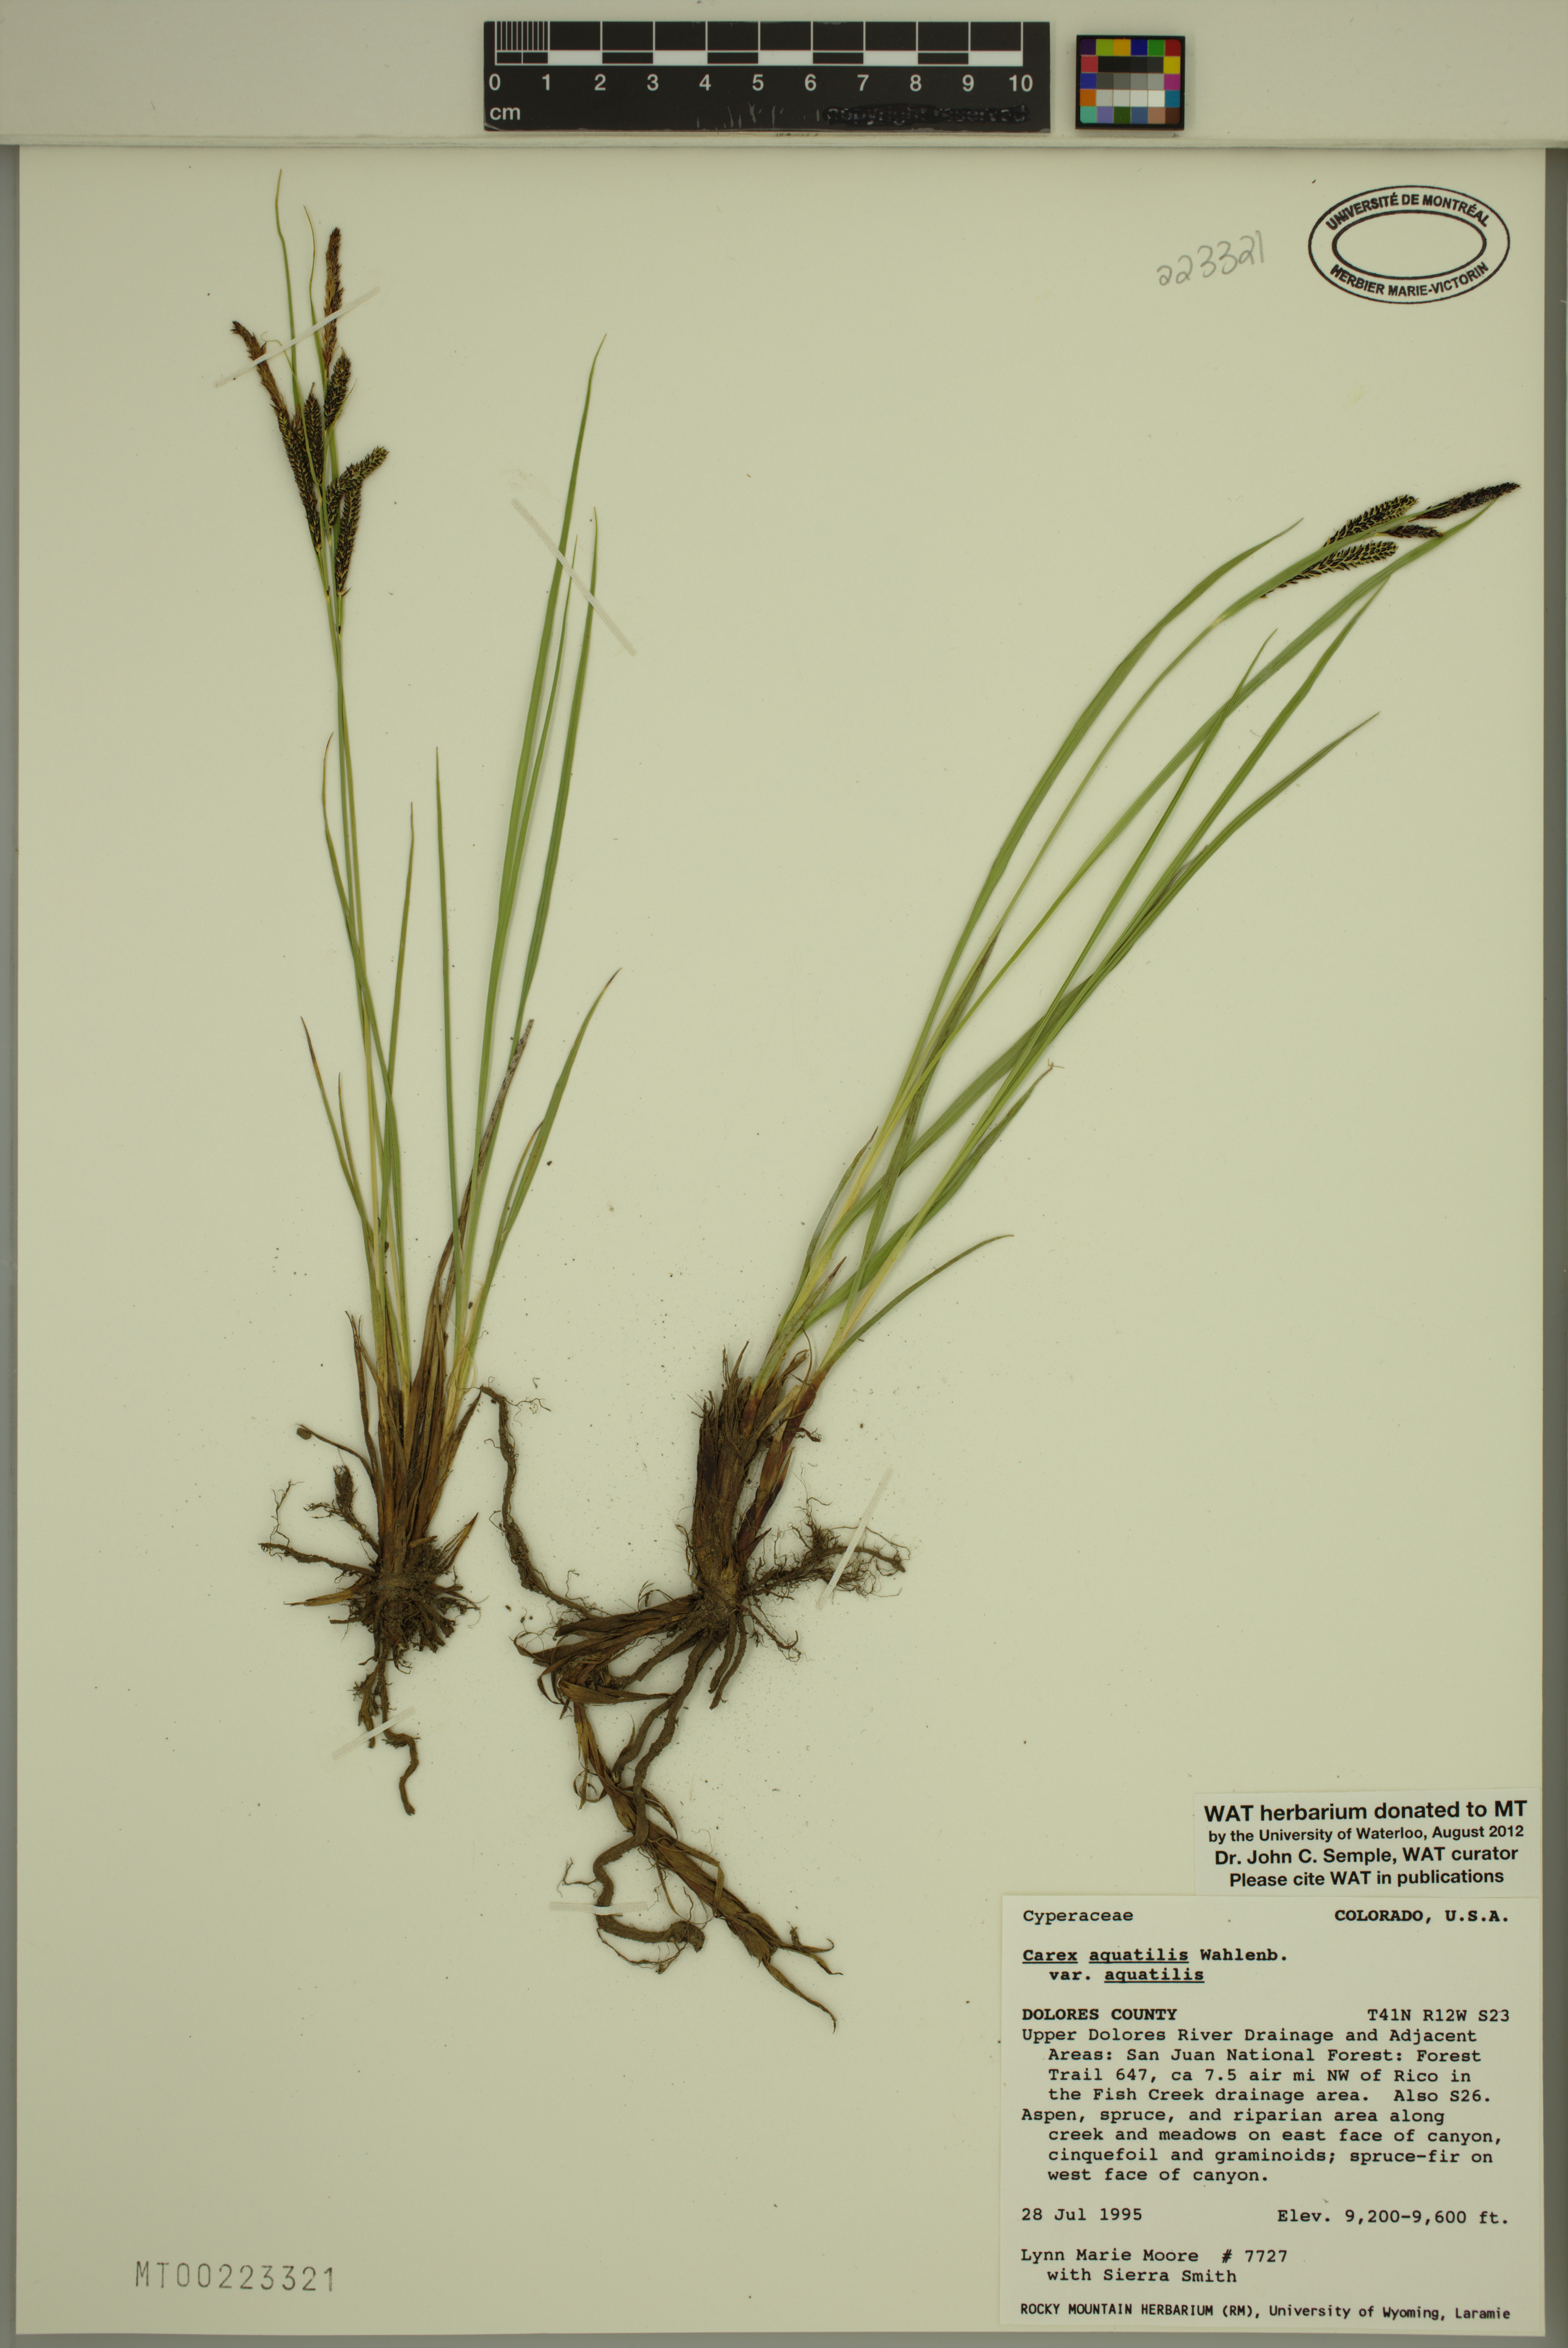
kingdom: Plantae
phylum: Tracheophyta
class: Liliopsida
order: Poales
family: Cyperaceae
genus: Carex
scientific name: Carex aquatilis
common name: Water sedge
